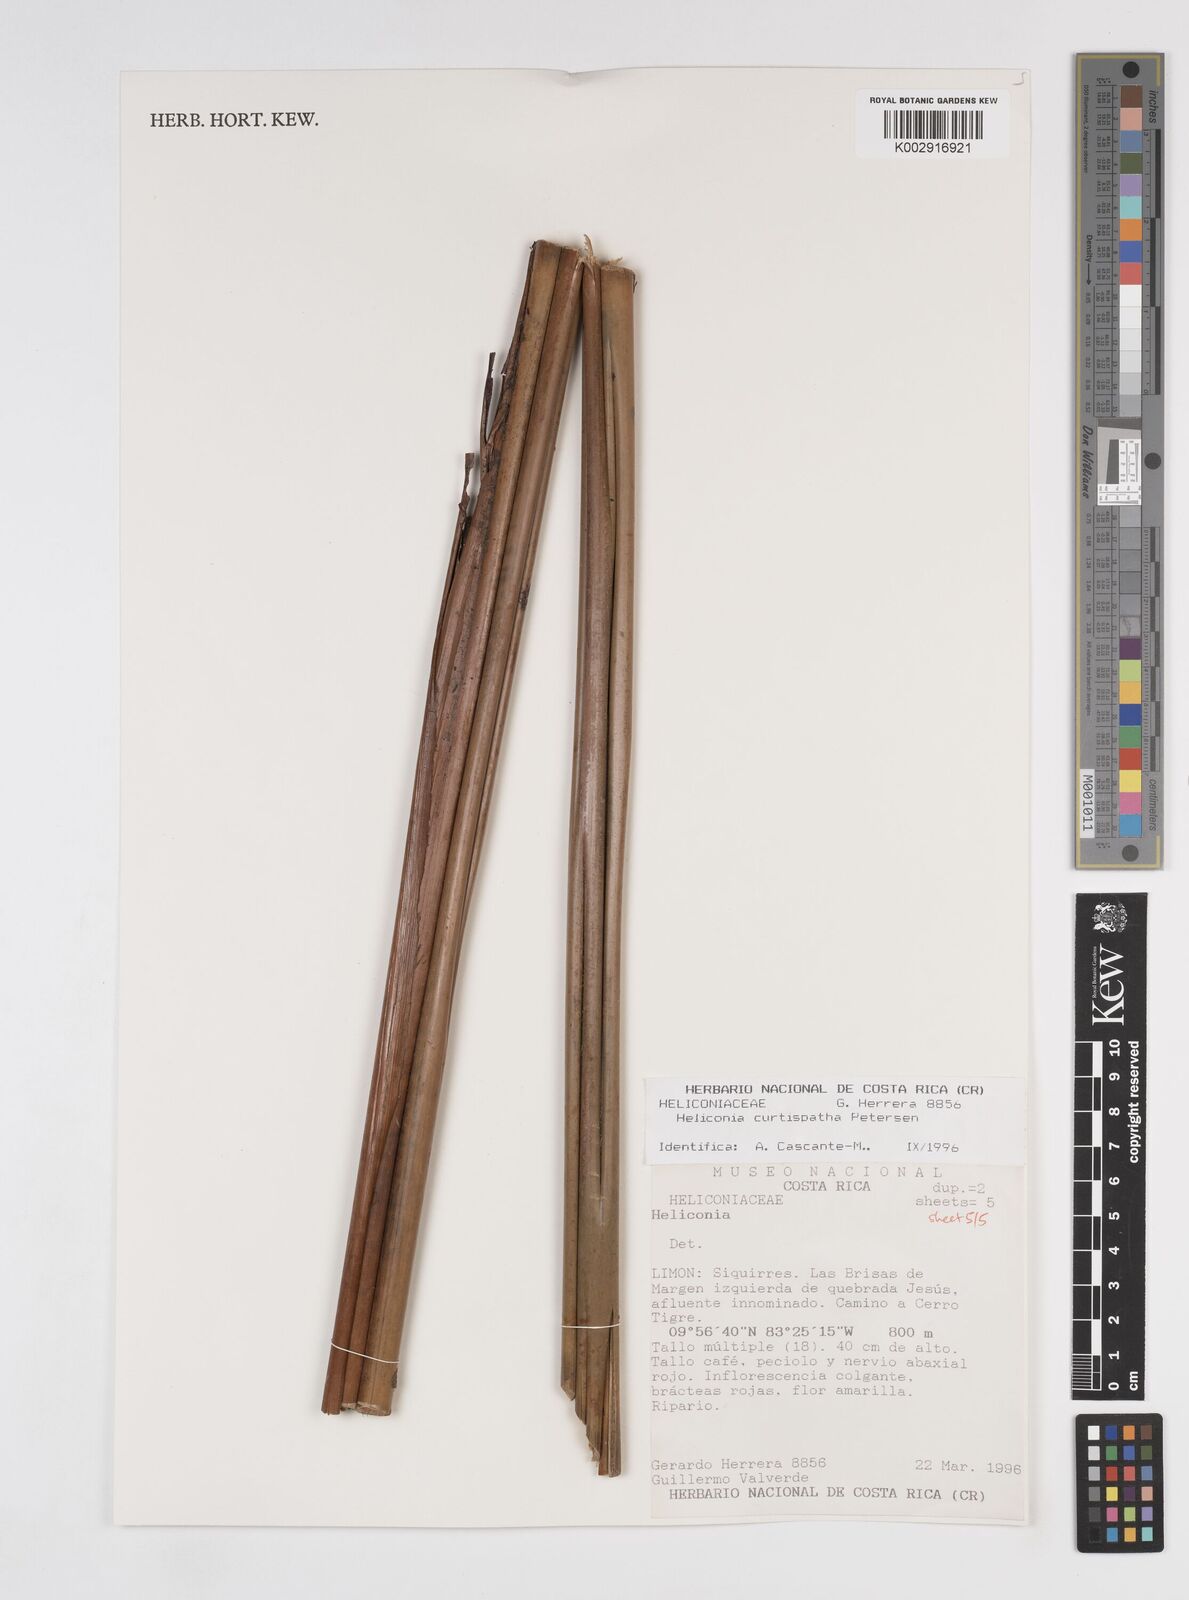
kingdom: Plantae
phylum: Tracheophyta
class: Liliopsida
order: Zingiberales
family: Heliconiaceae
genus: Heliconia
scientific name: Heliconia curtispatha
